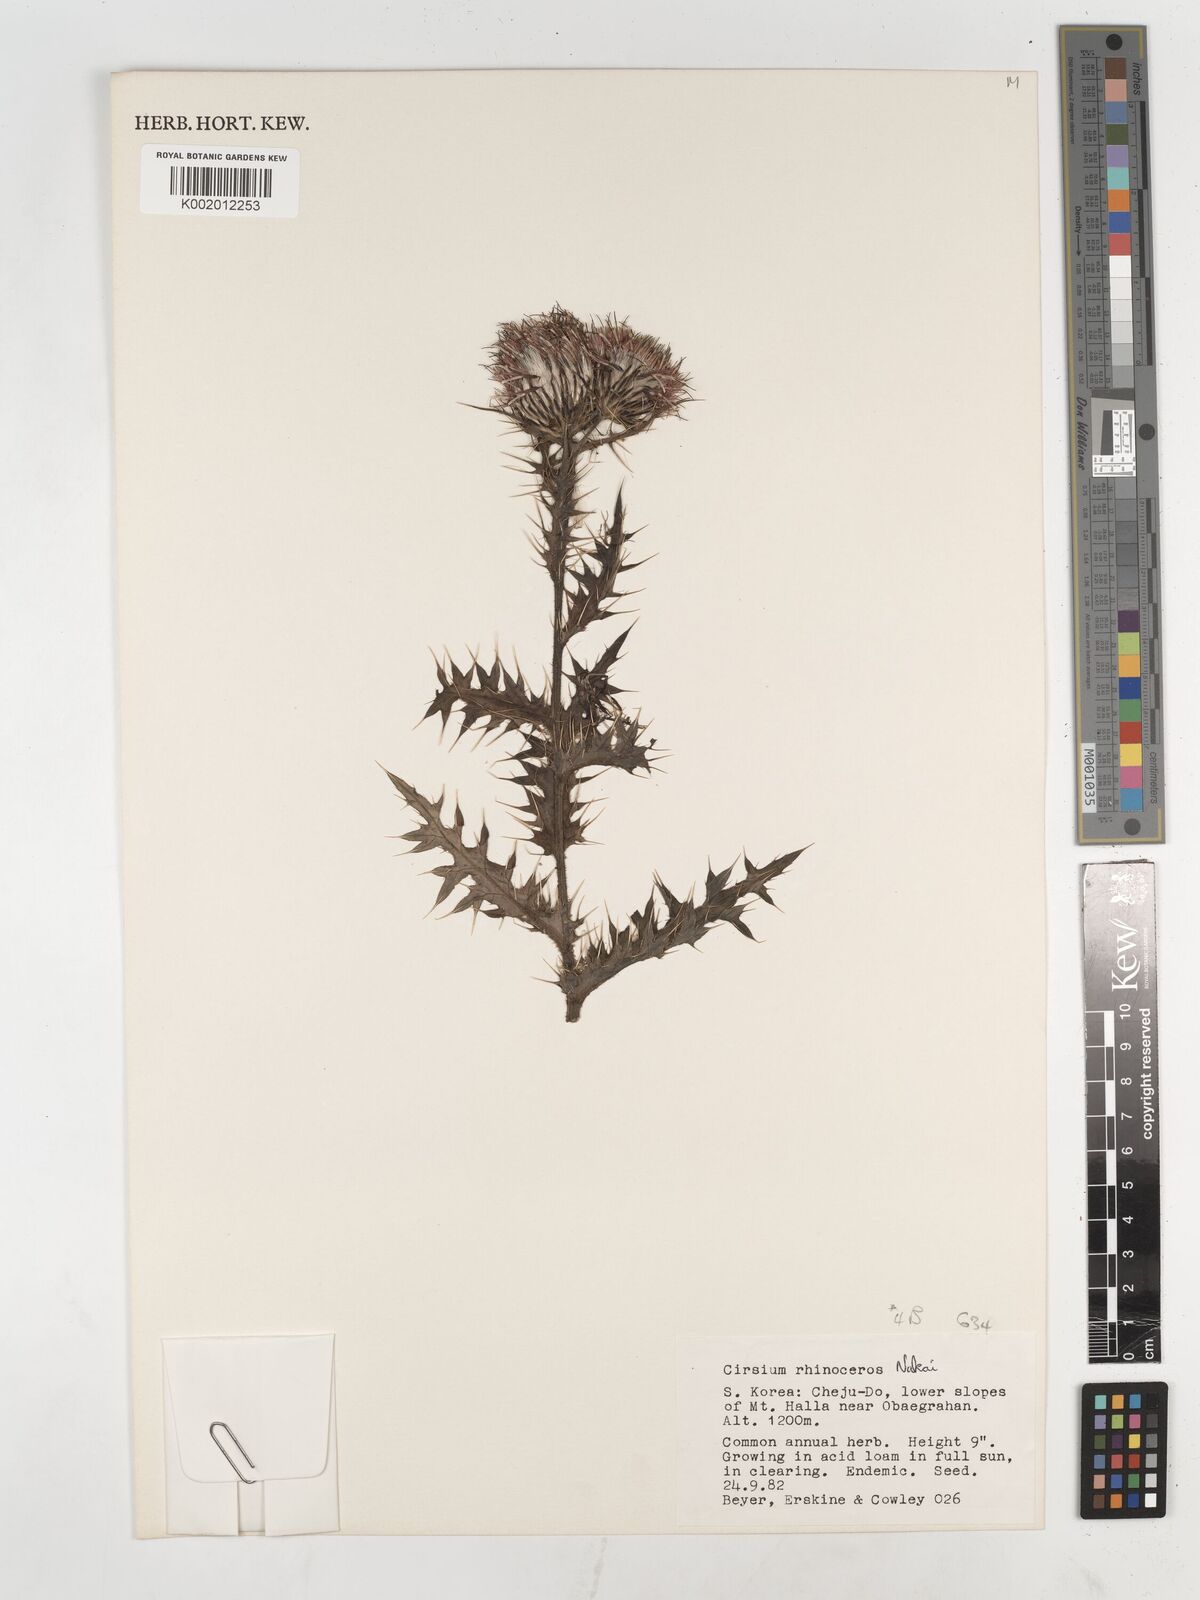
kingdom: Plantae
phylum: Tracheophyta
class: Magnoliopsida
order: Asterales
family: Asteraceae
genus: Cirsium
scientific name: Cirsium rhinoceros
